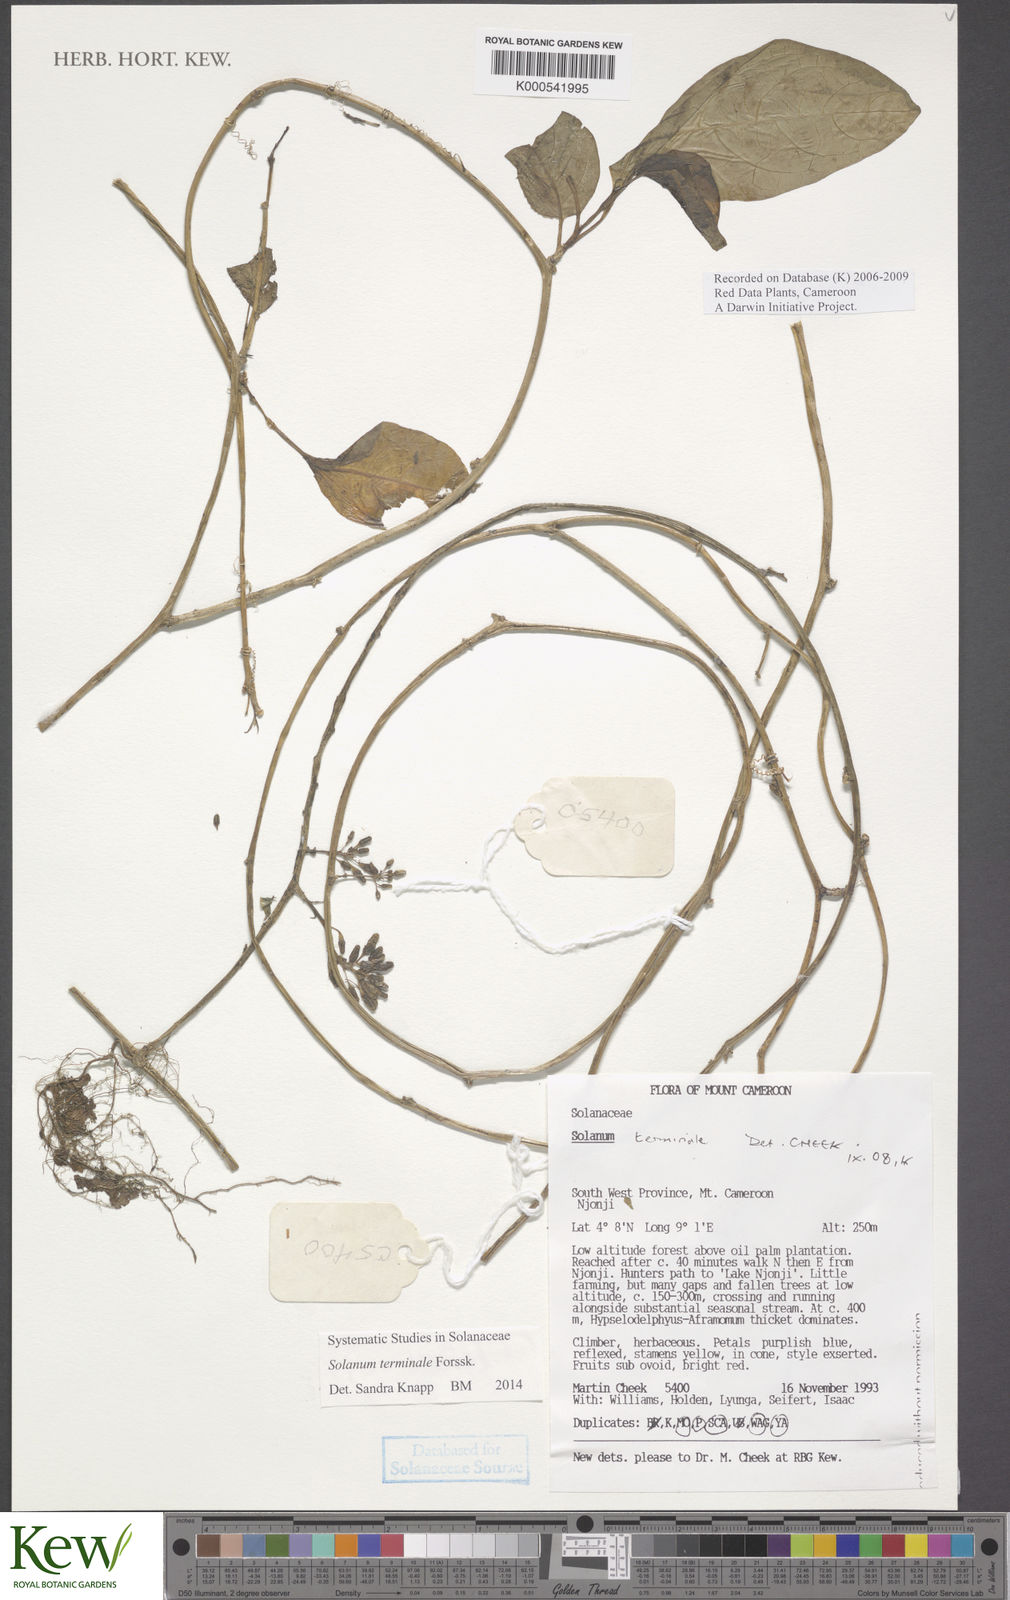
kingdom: Plantae
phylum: Tracheophyta
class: Magnoliopsida
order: Solanales
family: Solanaceae
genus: Solanum
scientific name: Solanum terminale
